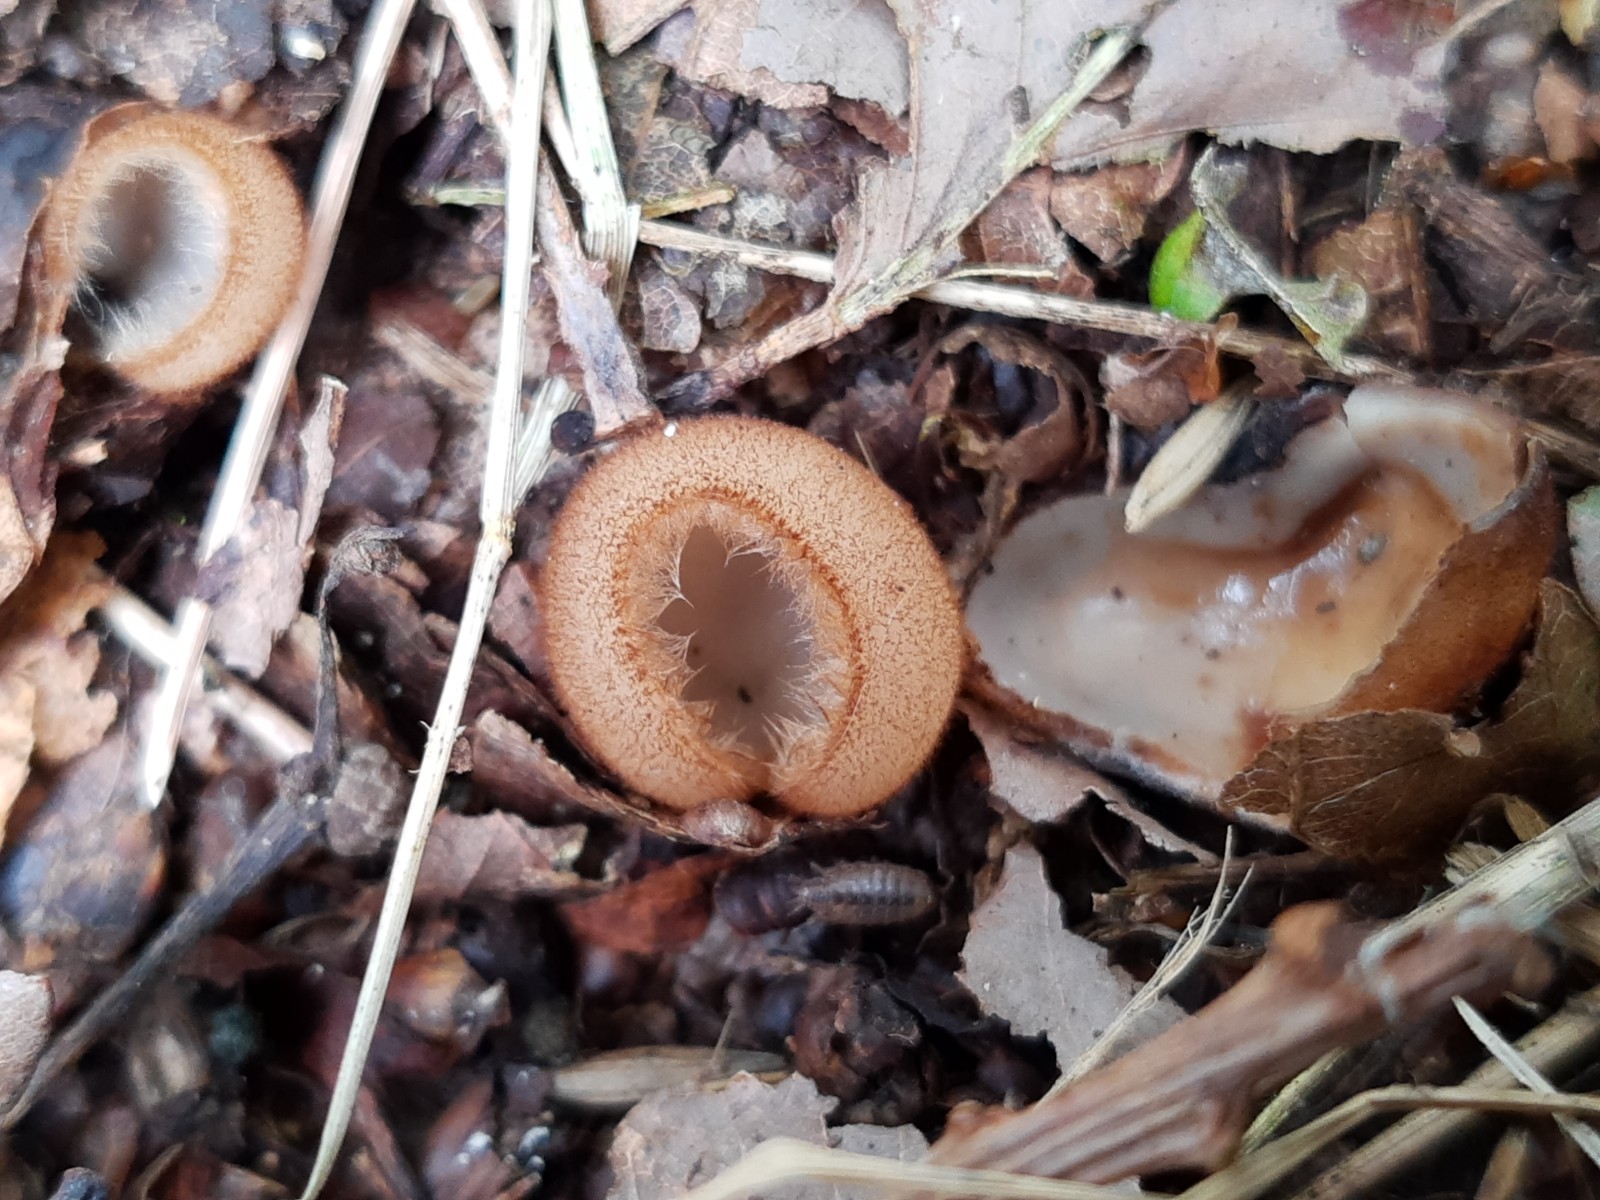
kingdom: Fungi
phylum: Ascomycota
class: Pezizomycetes
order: Pezizales
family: Pyronemataceae
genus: Humaria
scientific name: Humaria hemisphaerica
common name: halvkugleformet børstebæger
